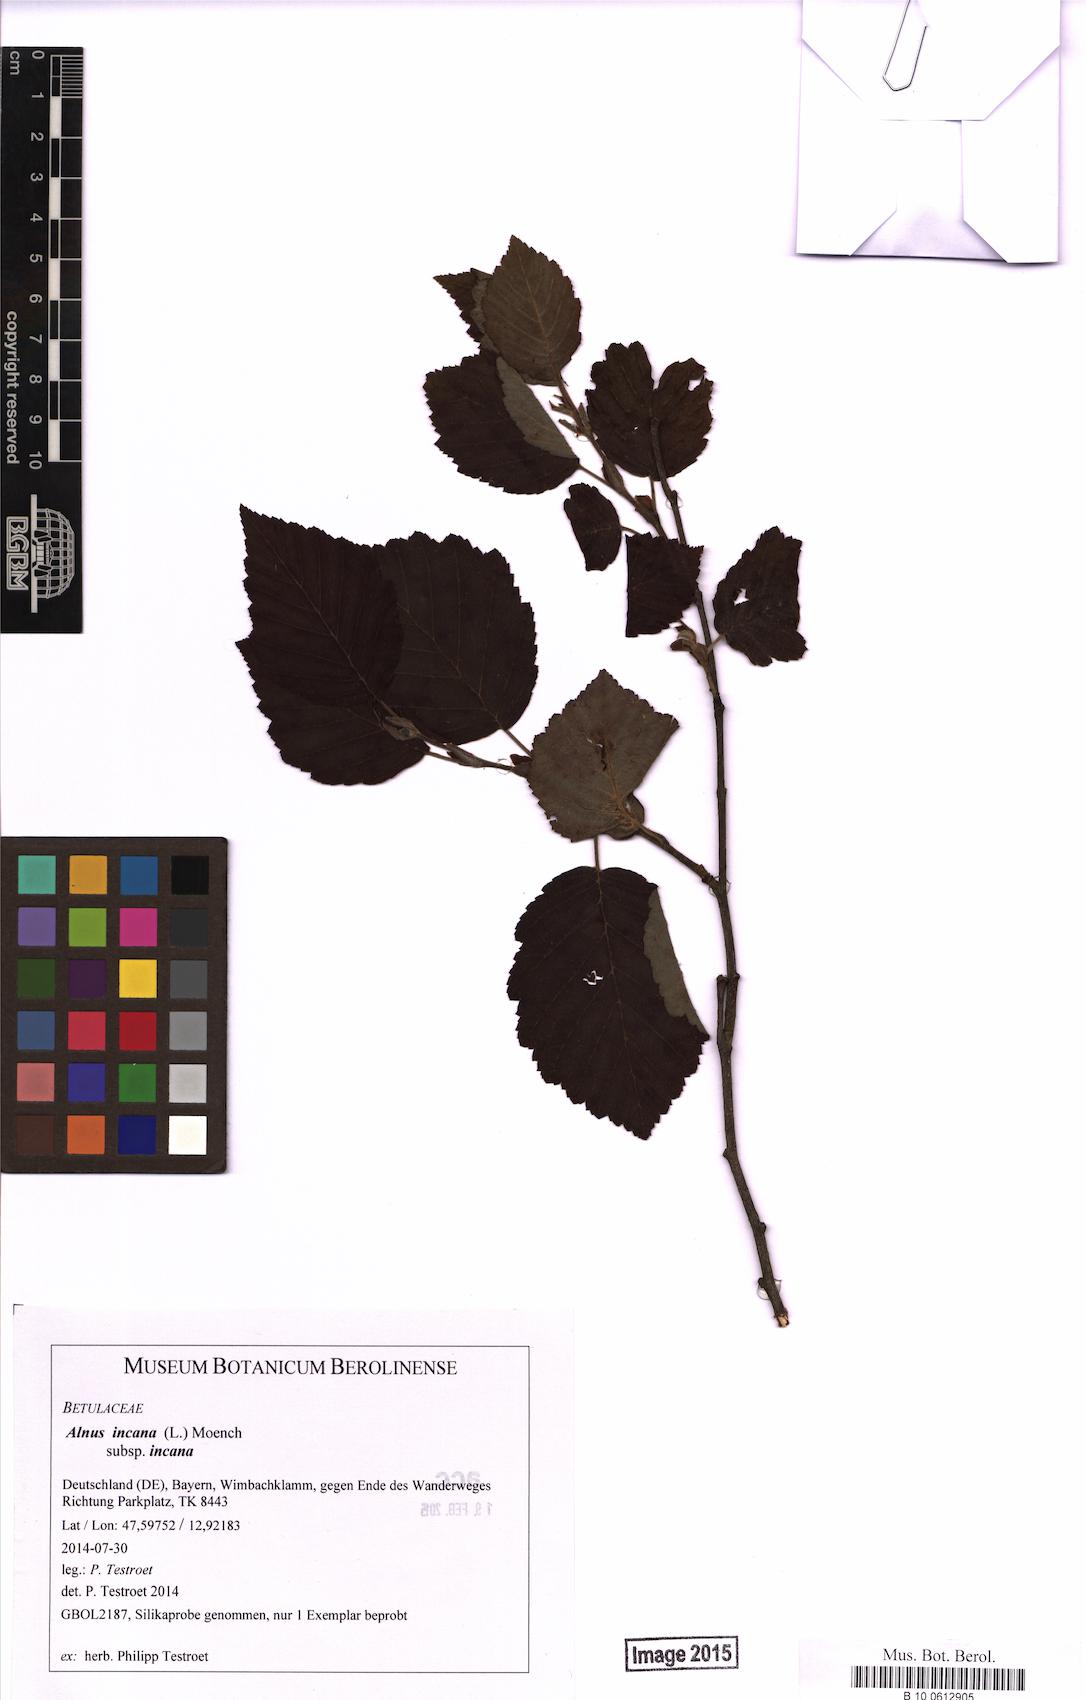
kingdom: Plantae
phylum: Tracheophyta
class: Magnoliopsida
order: Fagales
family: Betulaceae
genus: Alnus
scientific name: Alnus incana
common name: Grey alder
